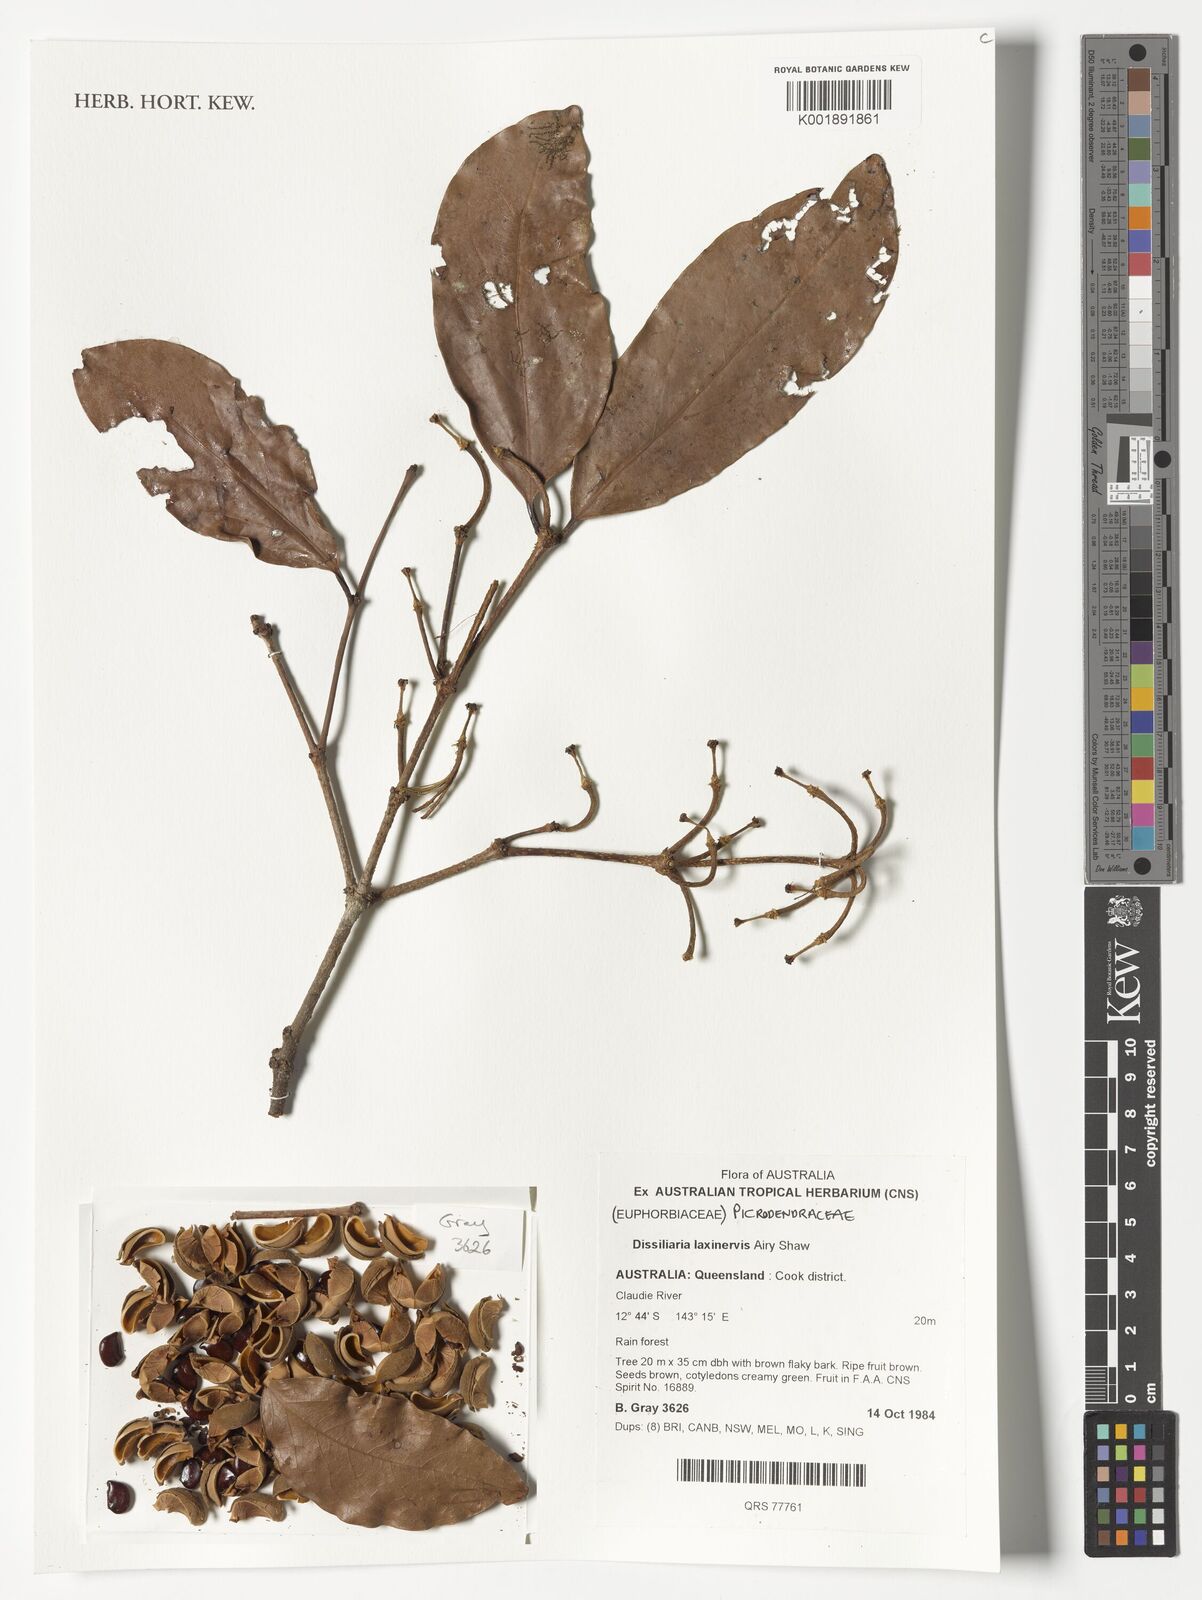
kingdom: Plantae
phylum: Tracheophyta
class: Magnoliopsida
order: Malpighiales
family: Picrodendraceae
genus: Dissiliaria
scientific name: Dissiliaria laxinervis
